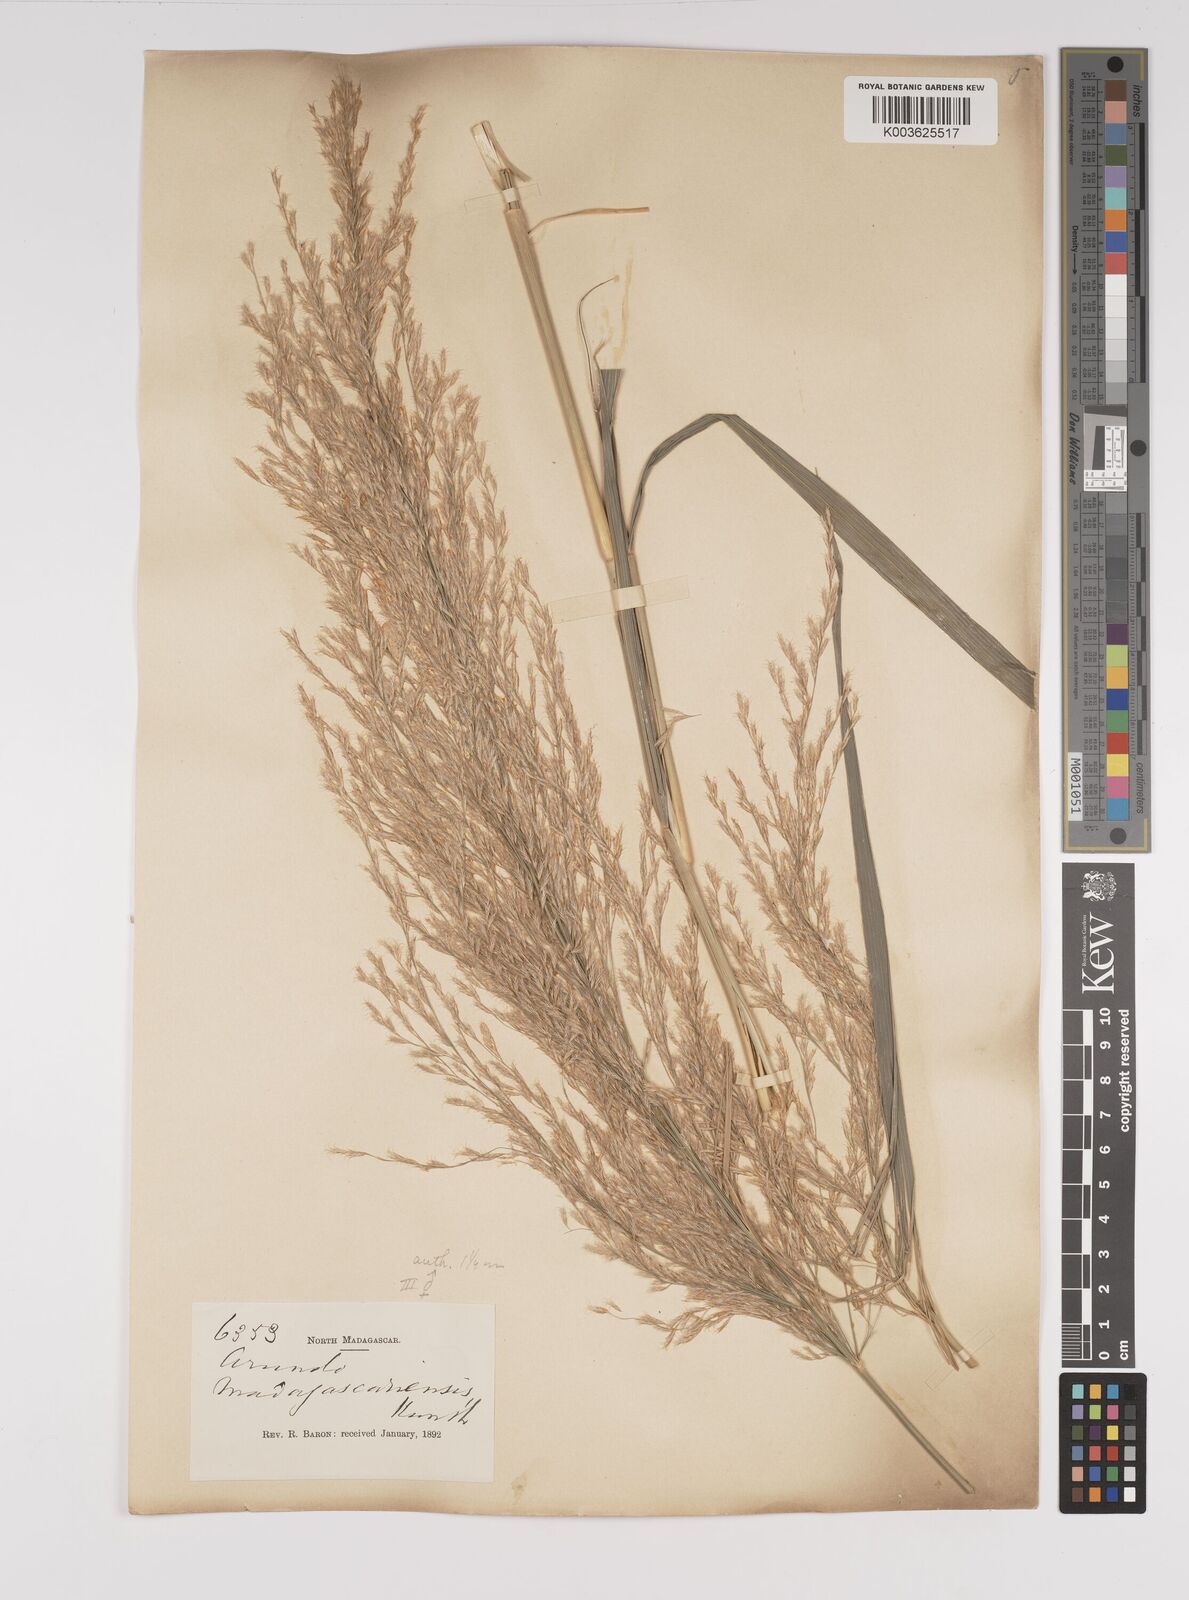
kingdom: Plantae
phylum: Tracheophyta
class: Liliopsida
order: Poales
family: Poaceae
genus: Neyraudia
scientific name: Neyraudia arundinacea
